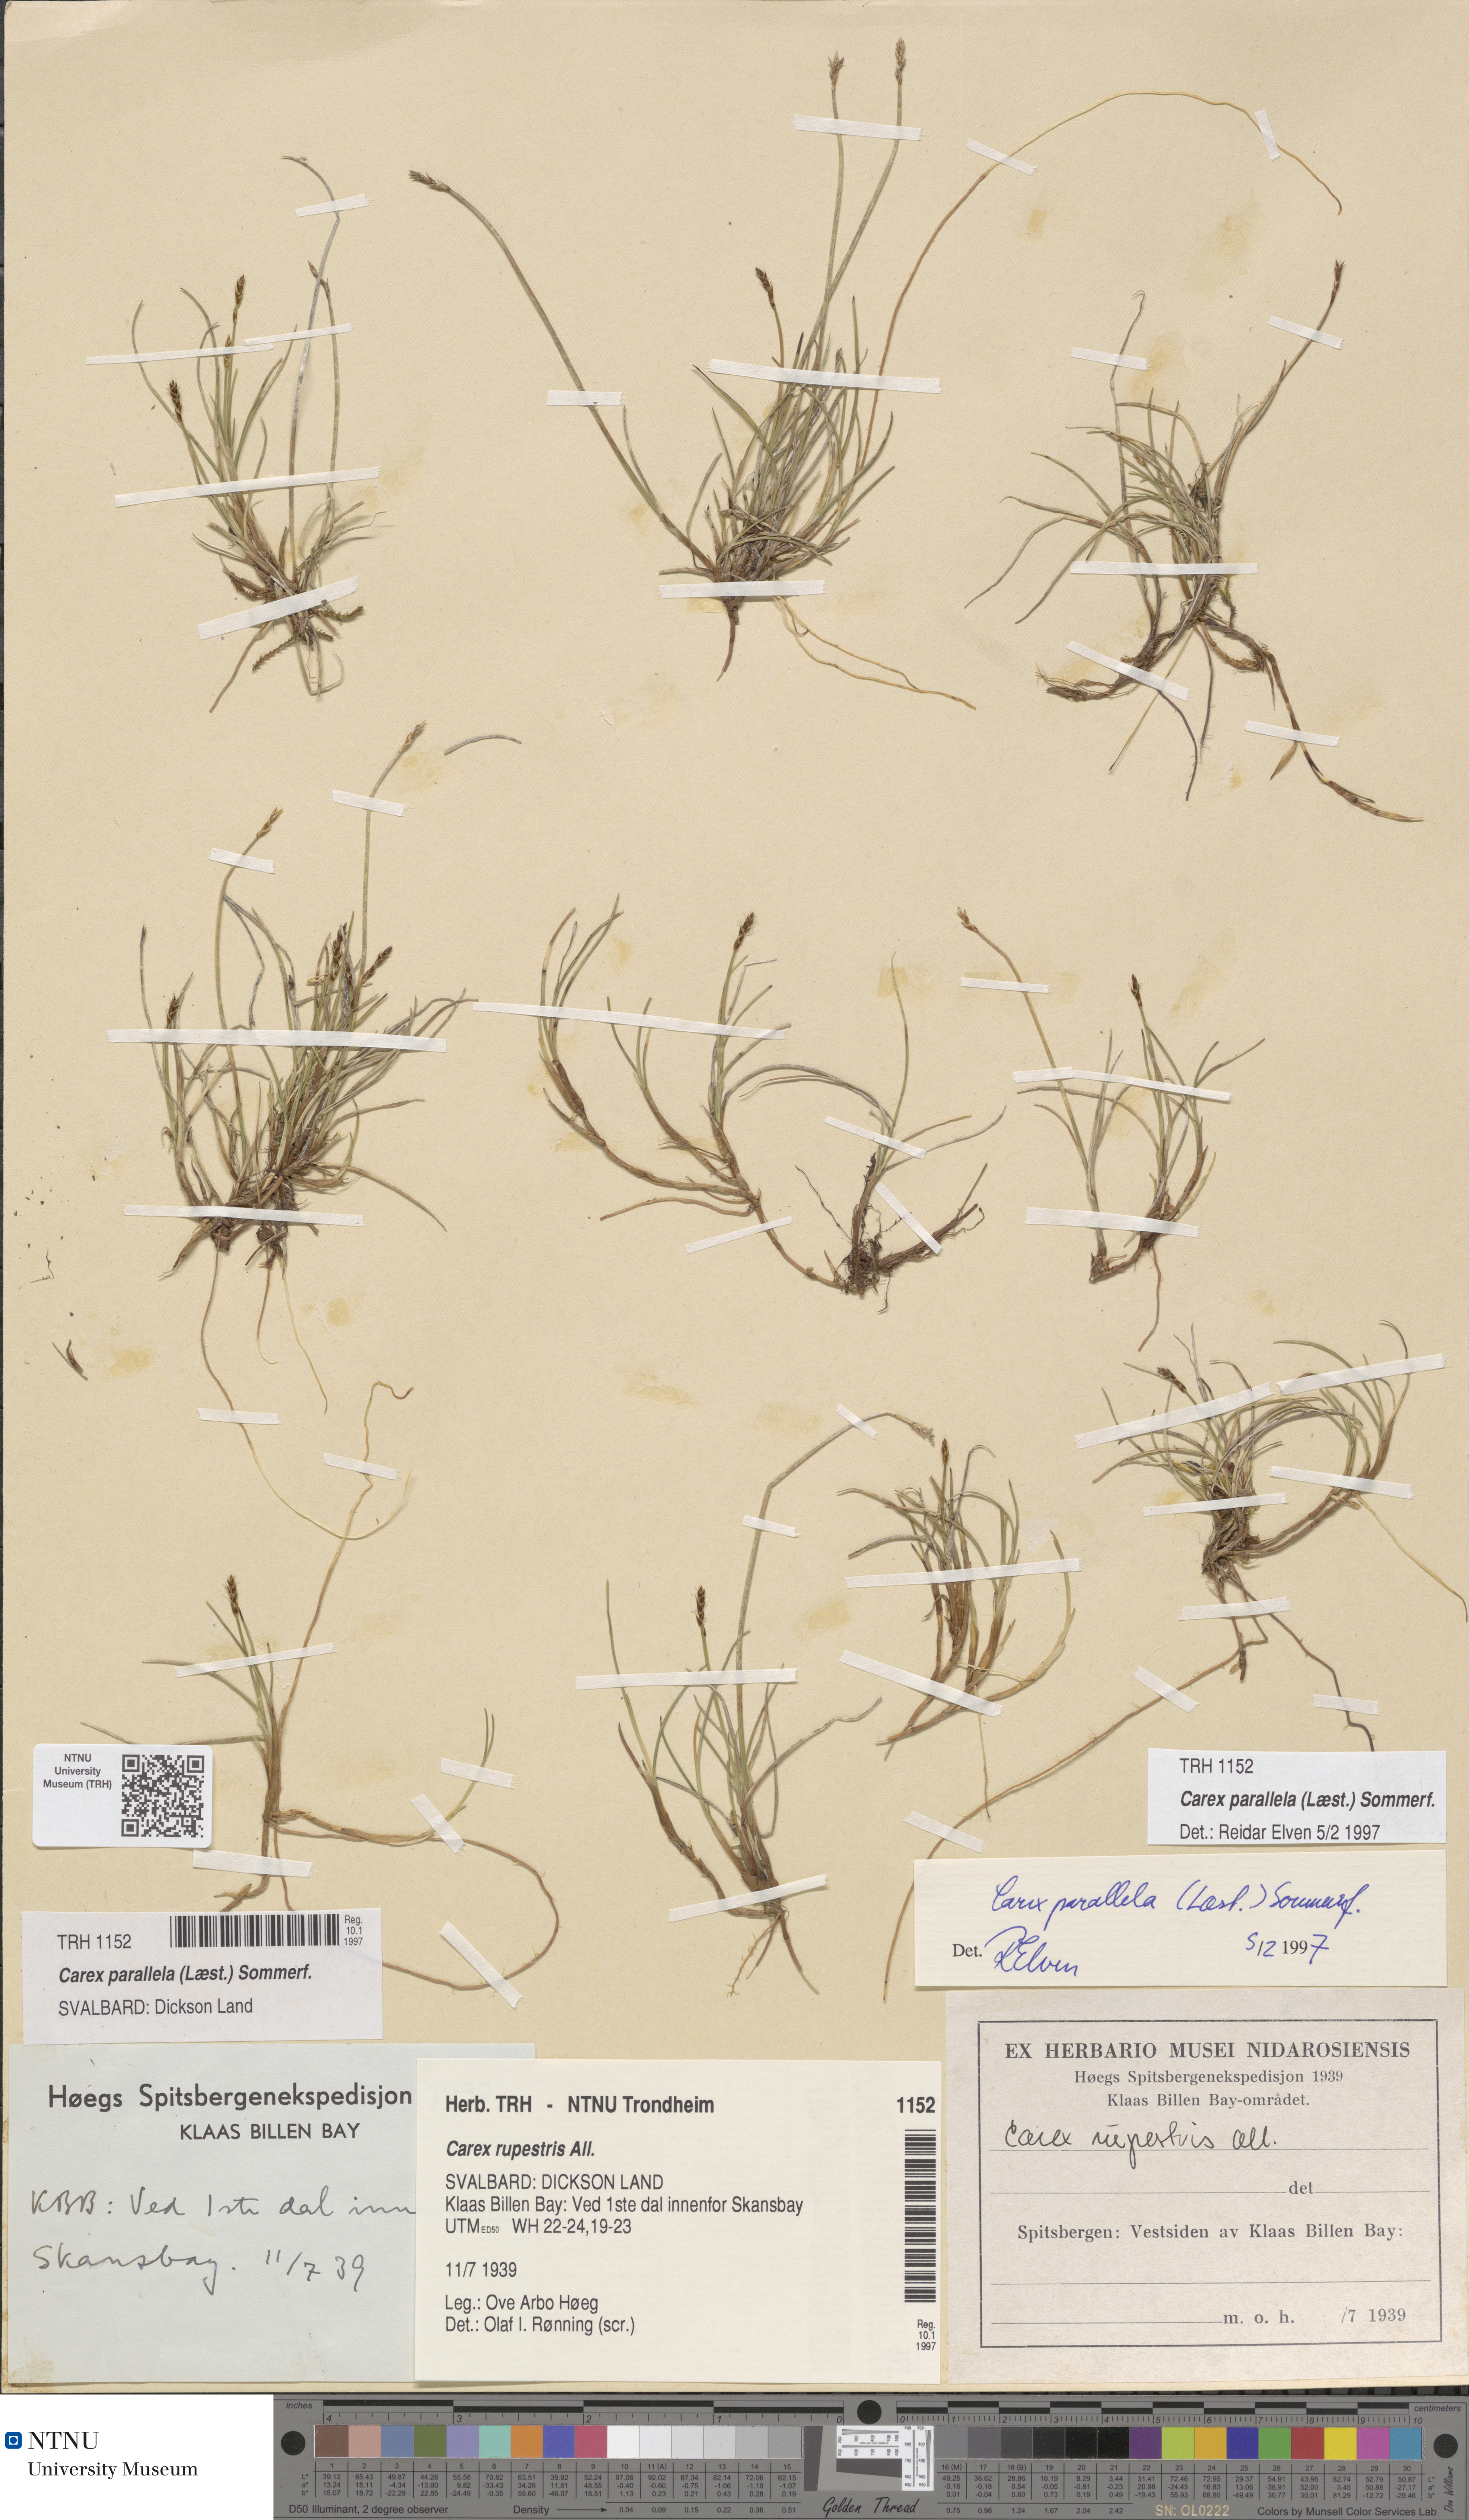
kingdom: Plantae
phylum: Tracheophyta
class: Liliopsida
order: Poales
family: Cyperaceae
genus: Carex
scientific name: Carex parallela
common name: Parallel sedge
